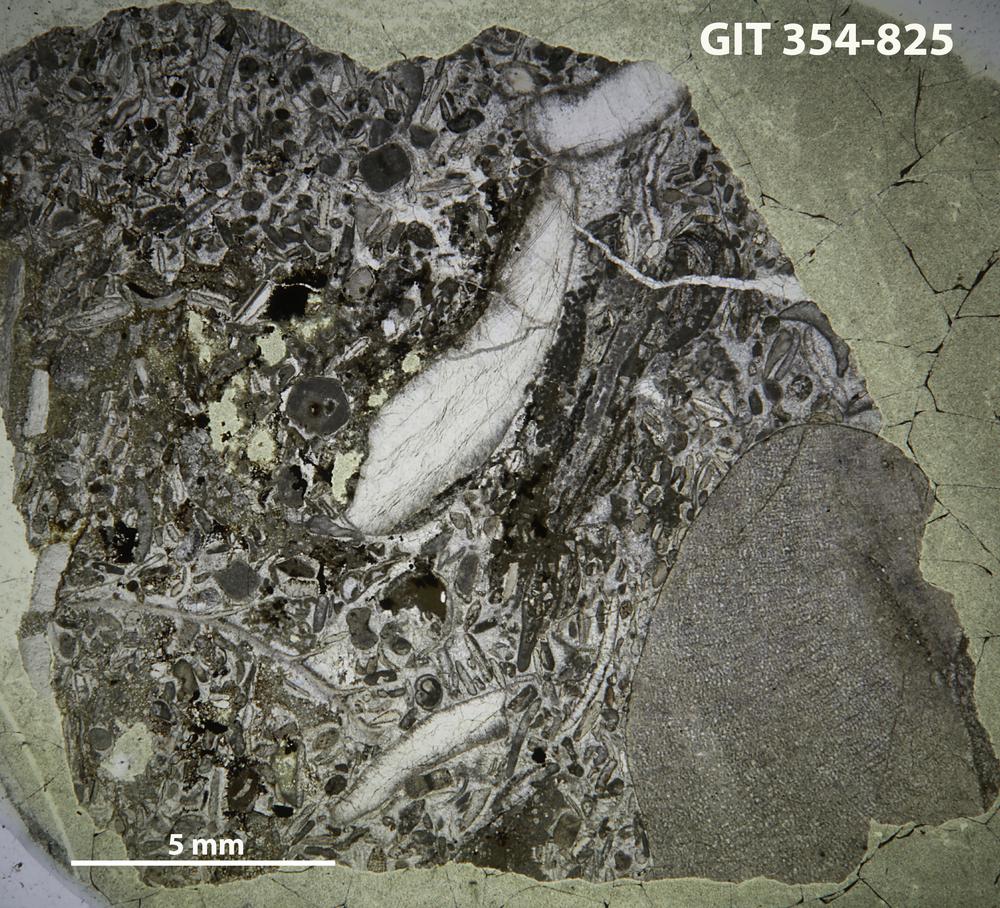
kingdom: Animalia
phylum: Porifera
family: Densastromatidae
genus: Densastroma
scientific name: Densastroma
